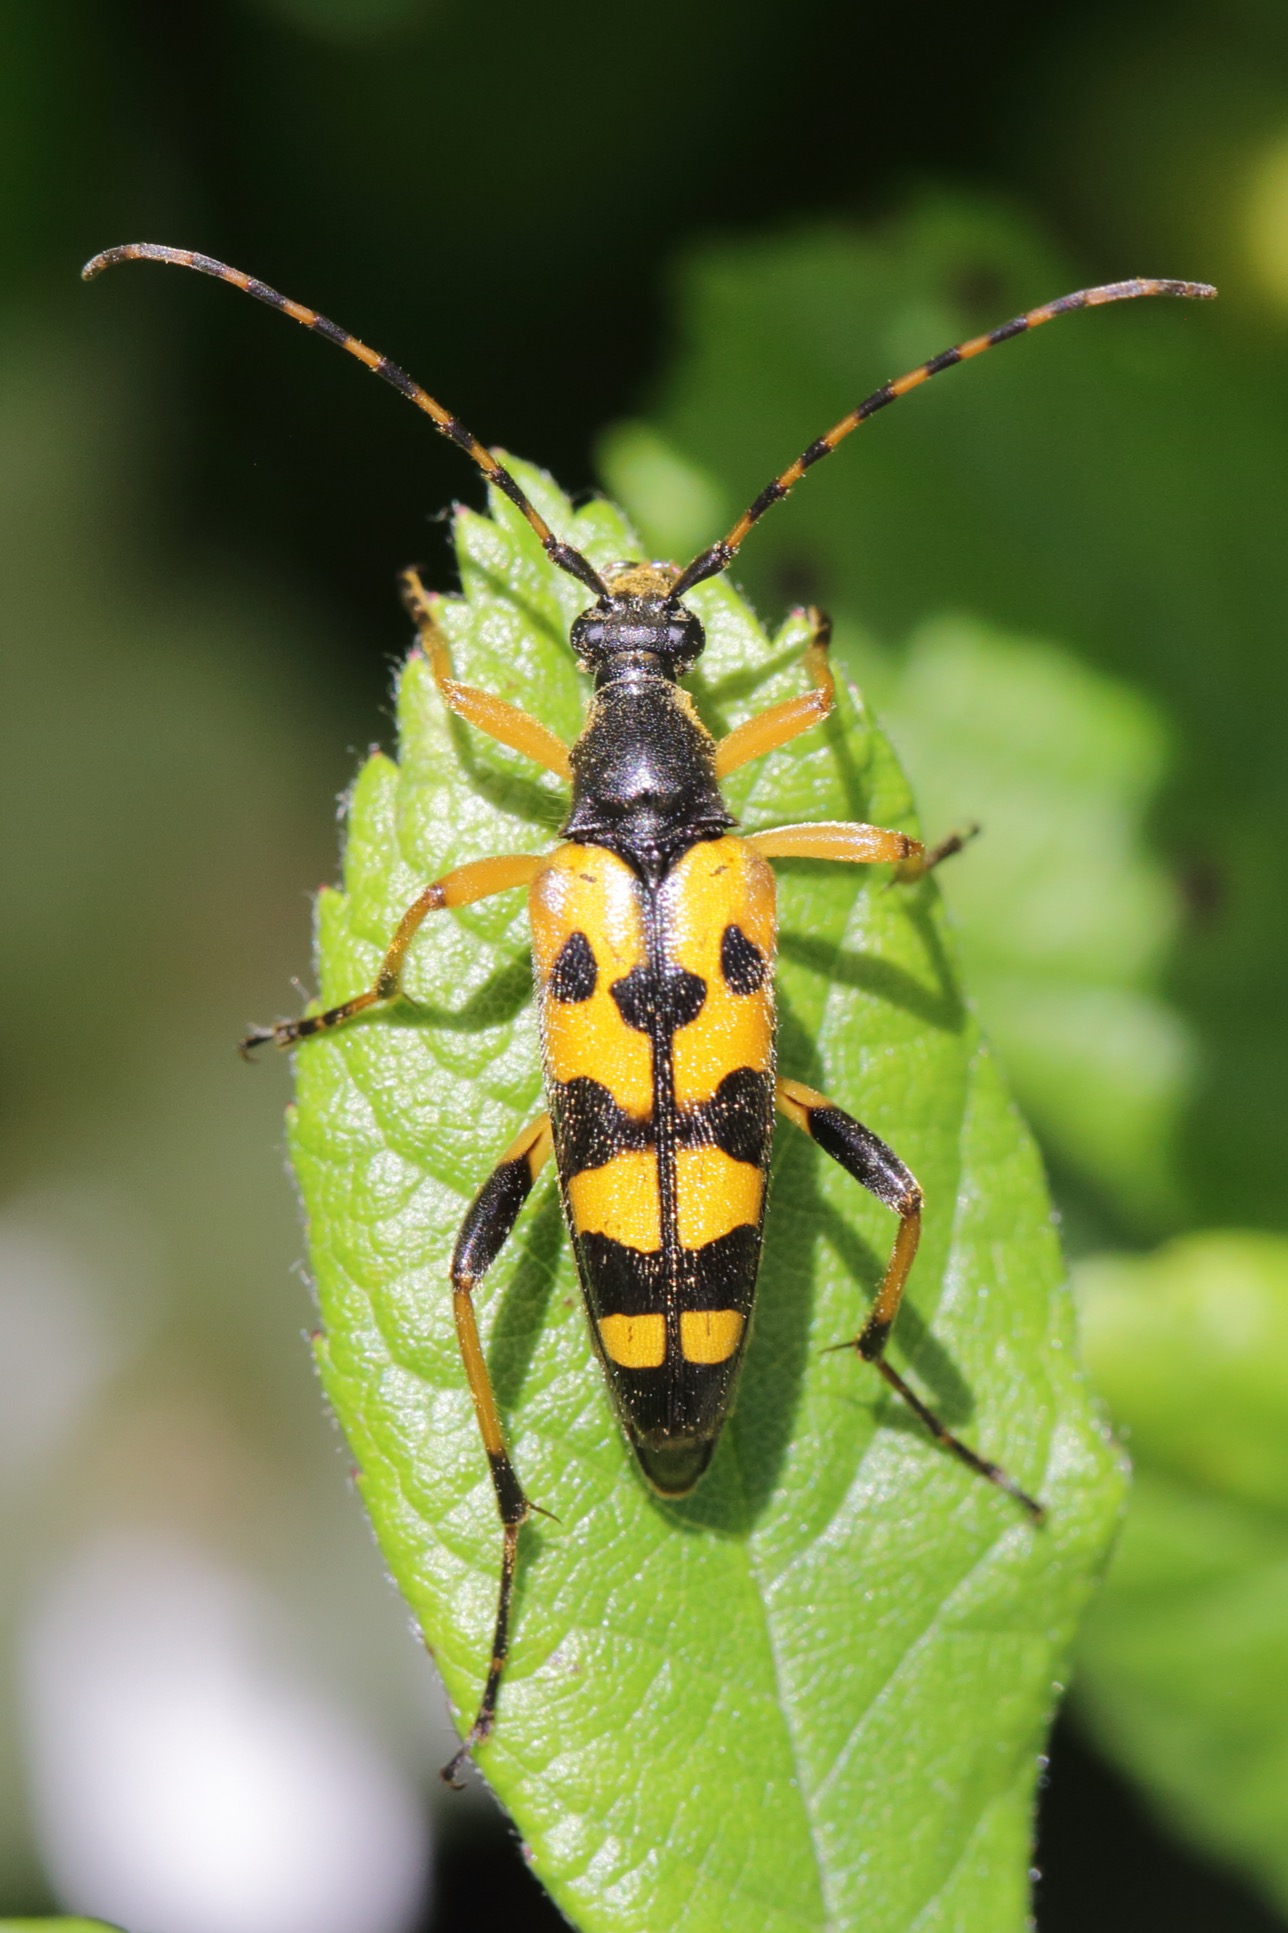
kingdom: Animalia
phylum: Arthropoda
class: Insecta
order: Coleoptera
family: Cerambycidae
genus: Rutpela
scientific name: Rutpela maculata
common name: Sydlig blomsterbuk
